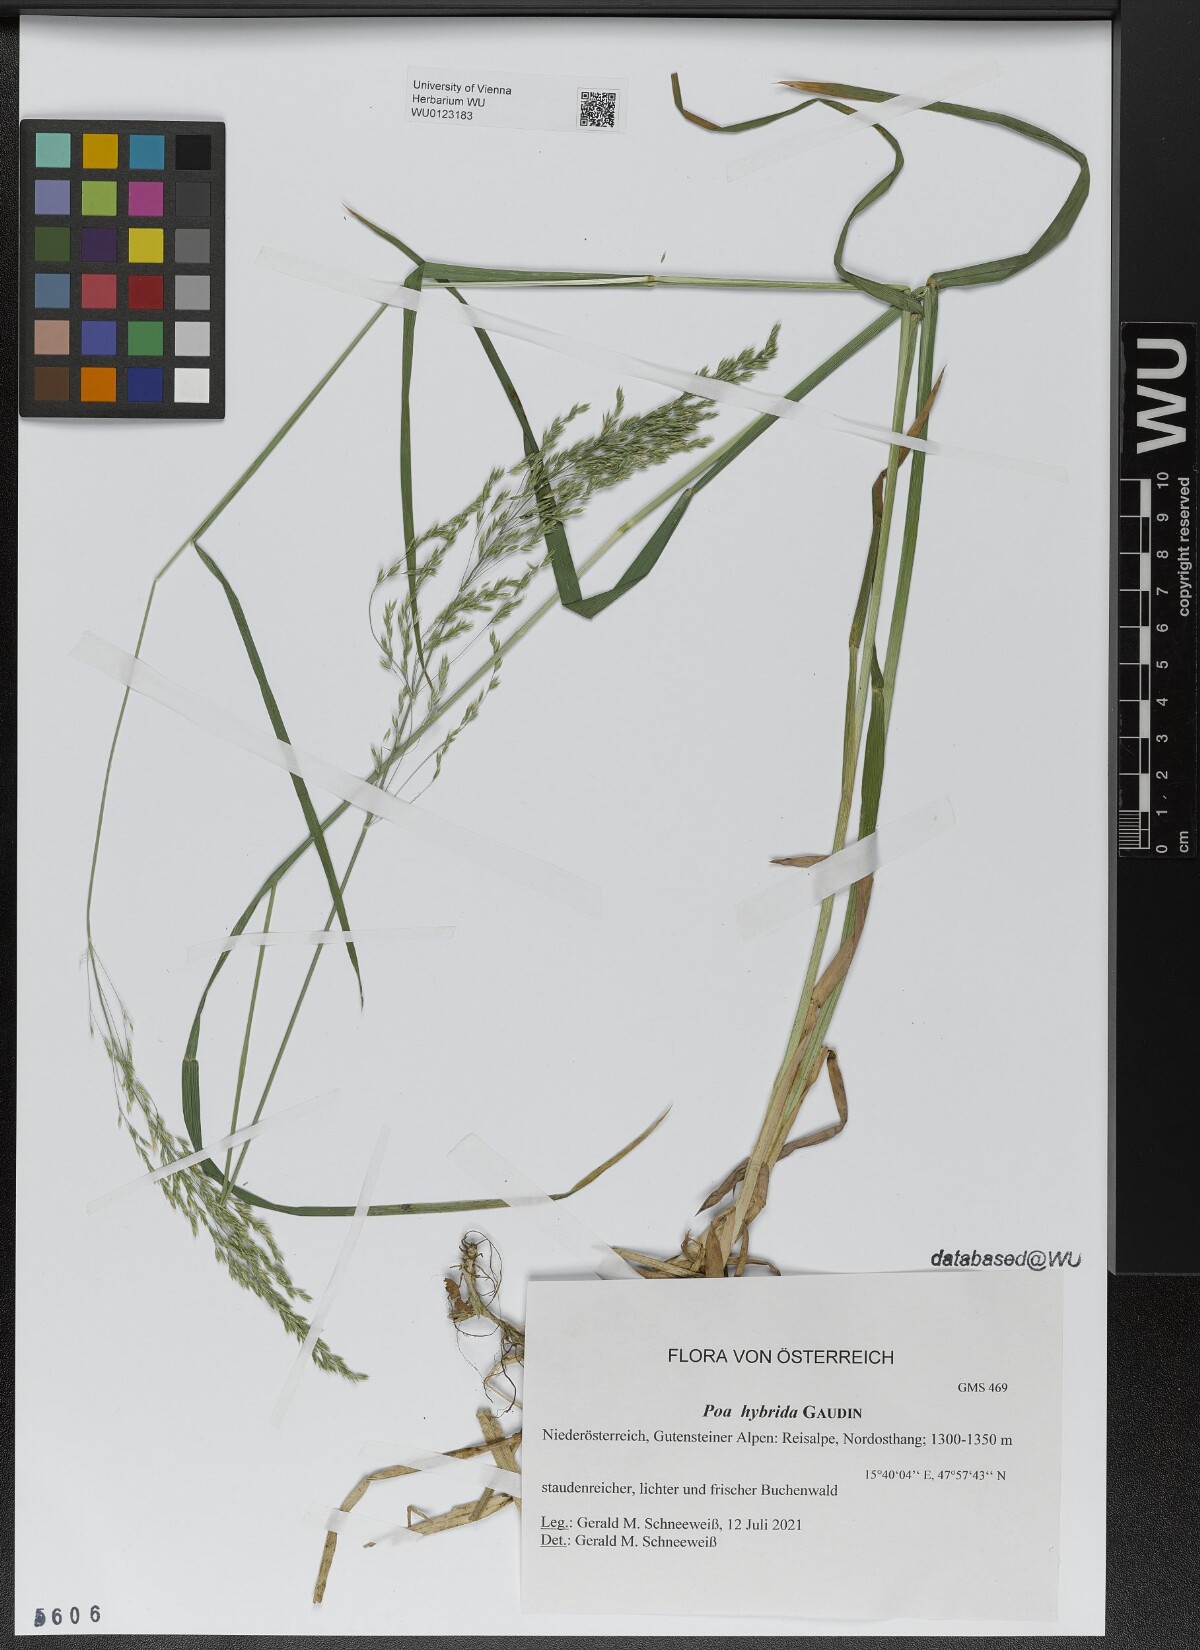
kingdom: Plantae
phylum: Tracheophyta
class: Liliopsida
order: Poales
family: Poaceae
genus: Poa
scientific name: Poa hybrida
